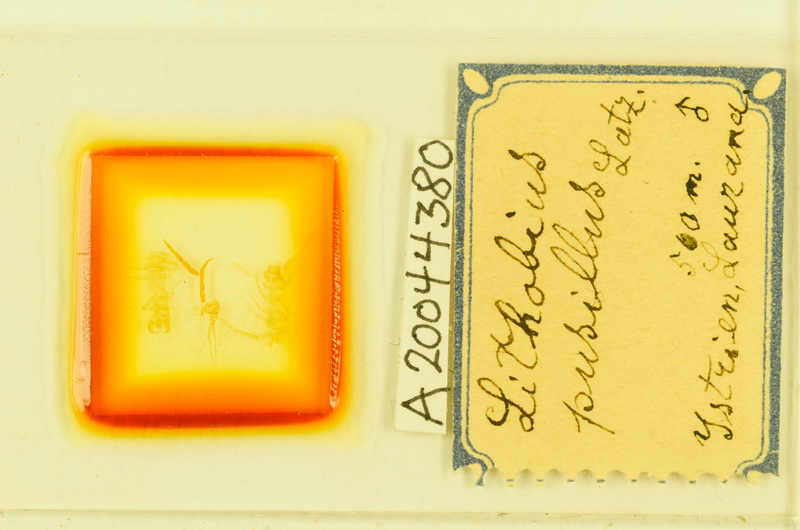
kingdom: Animalia
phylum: Arthropoda
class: Chilopoda
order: Lithobiomorpha
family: Lithobiidae
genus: Lithobius
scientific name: Lithobius
